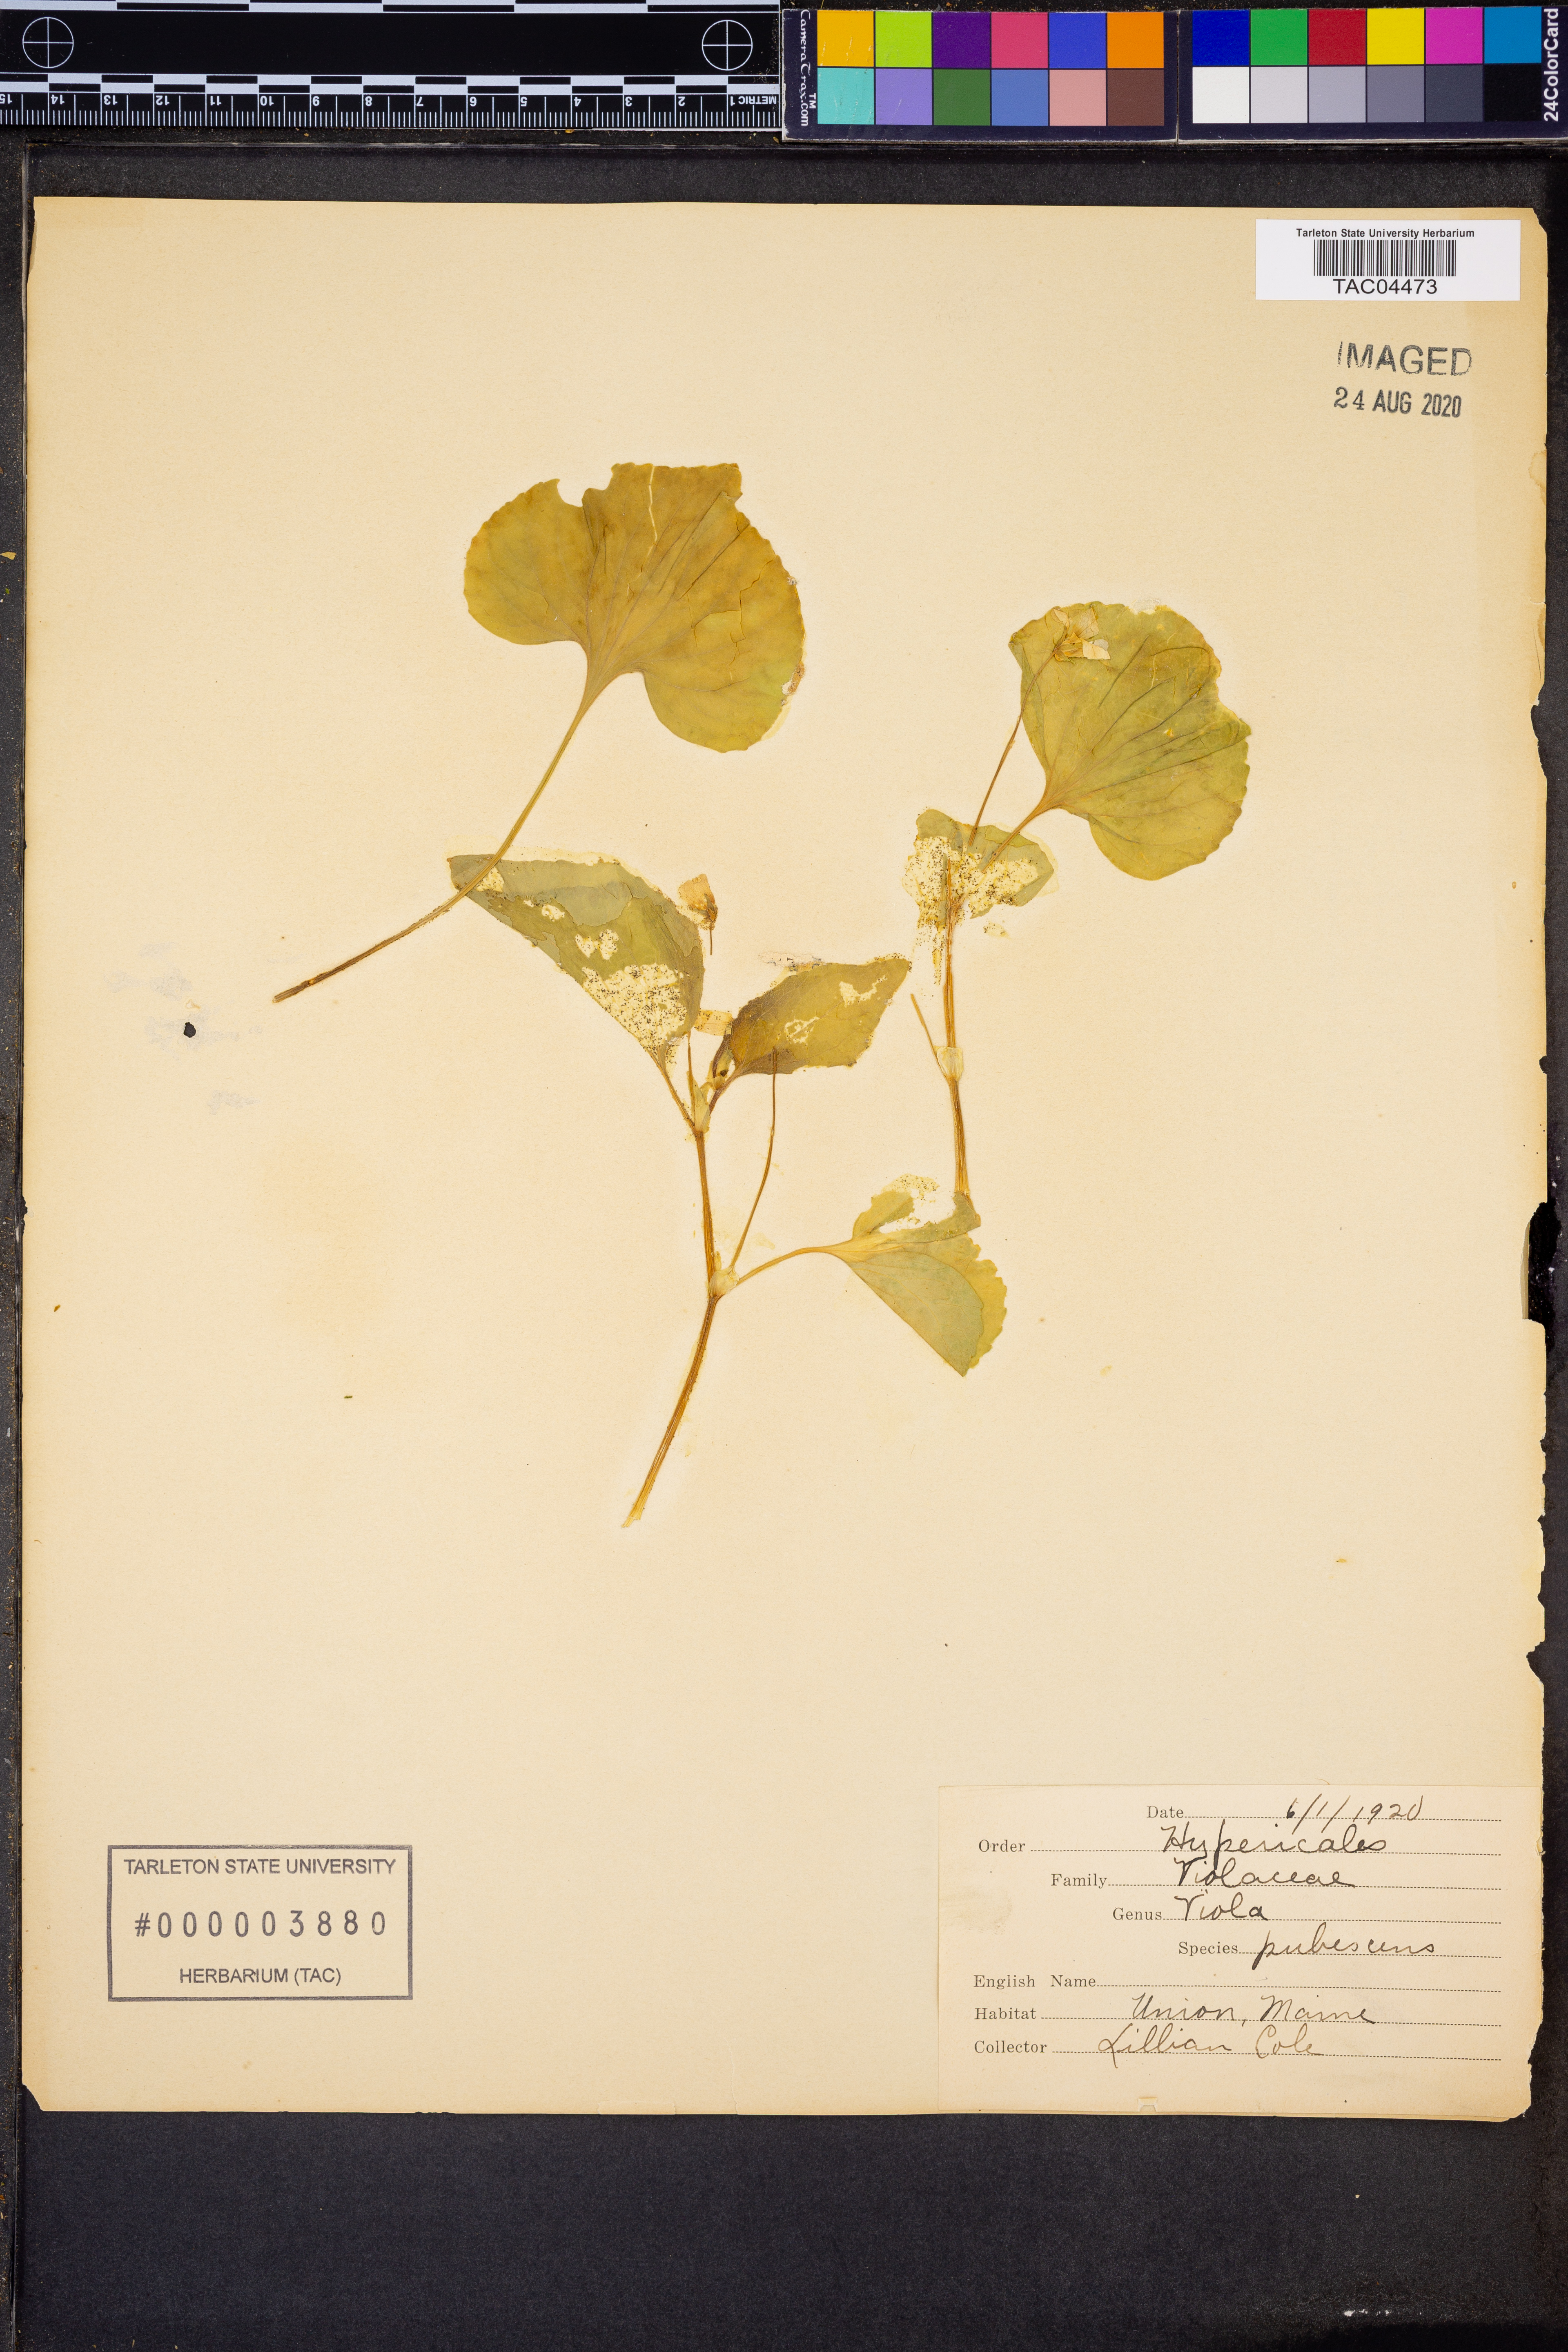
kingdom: Plantae
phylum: Tracheophyta
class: Magnoliopsida
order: Malpighiales
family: Violaceae
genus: Viola
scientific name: Viola pubescens
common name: Yellow forest violet
